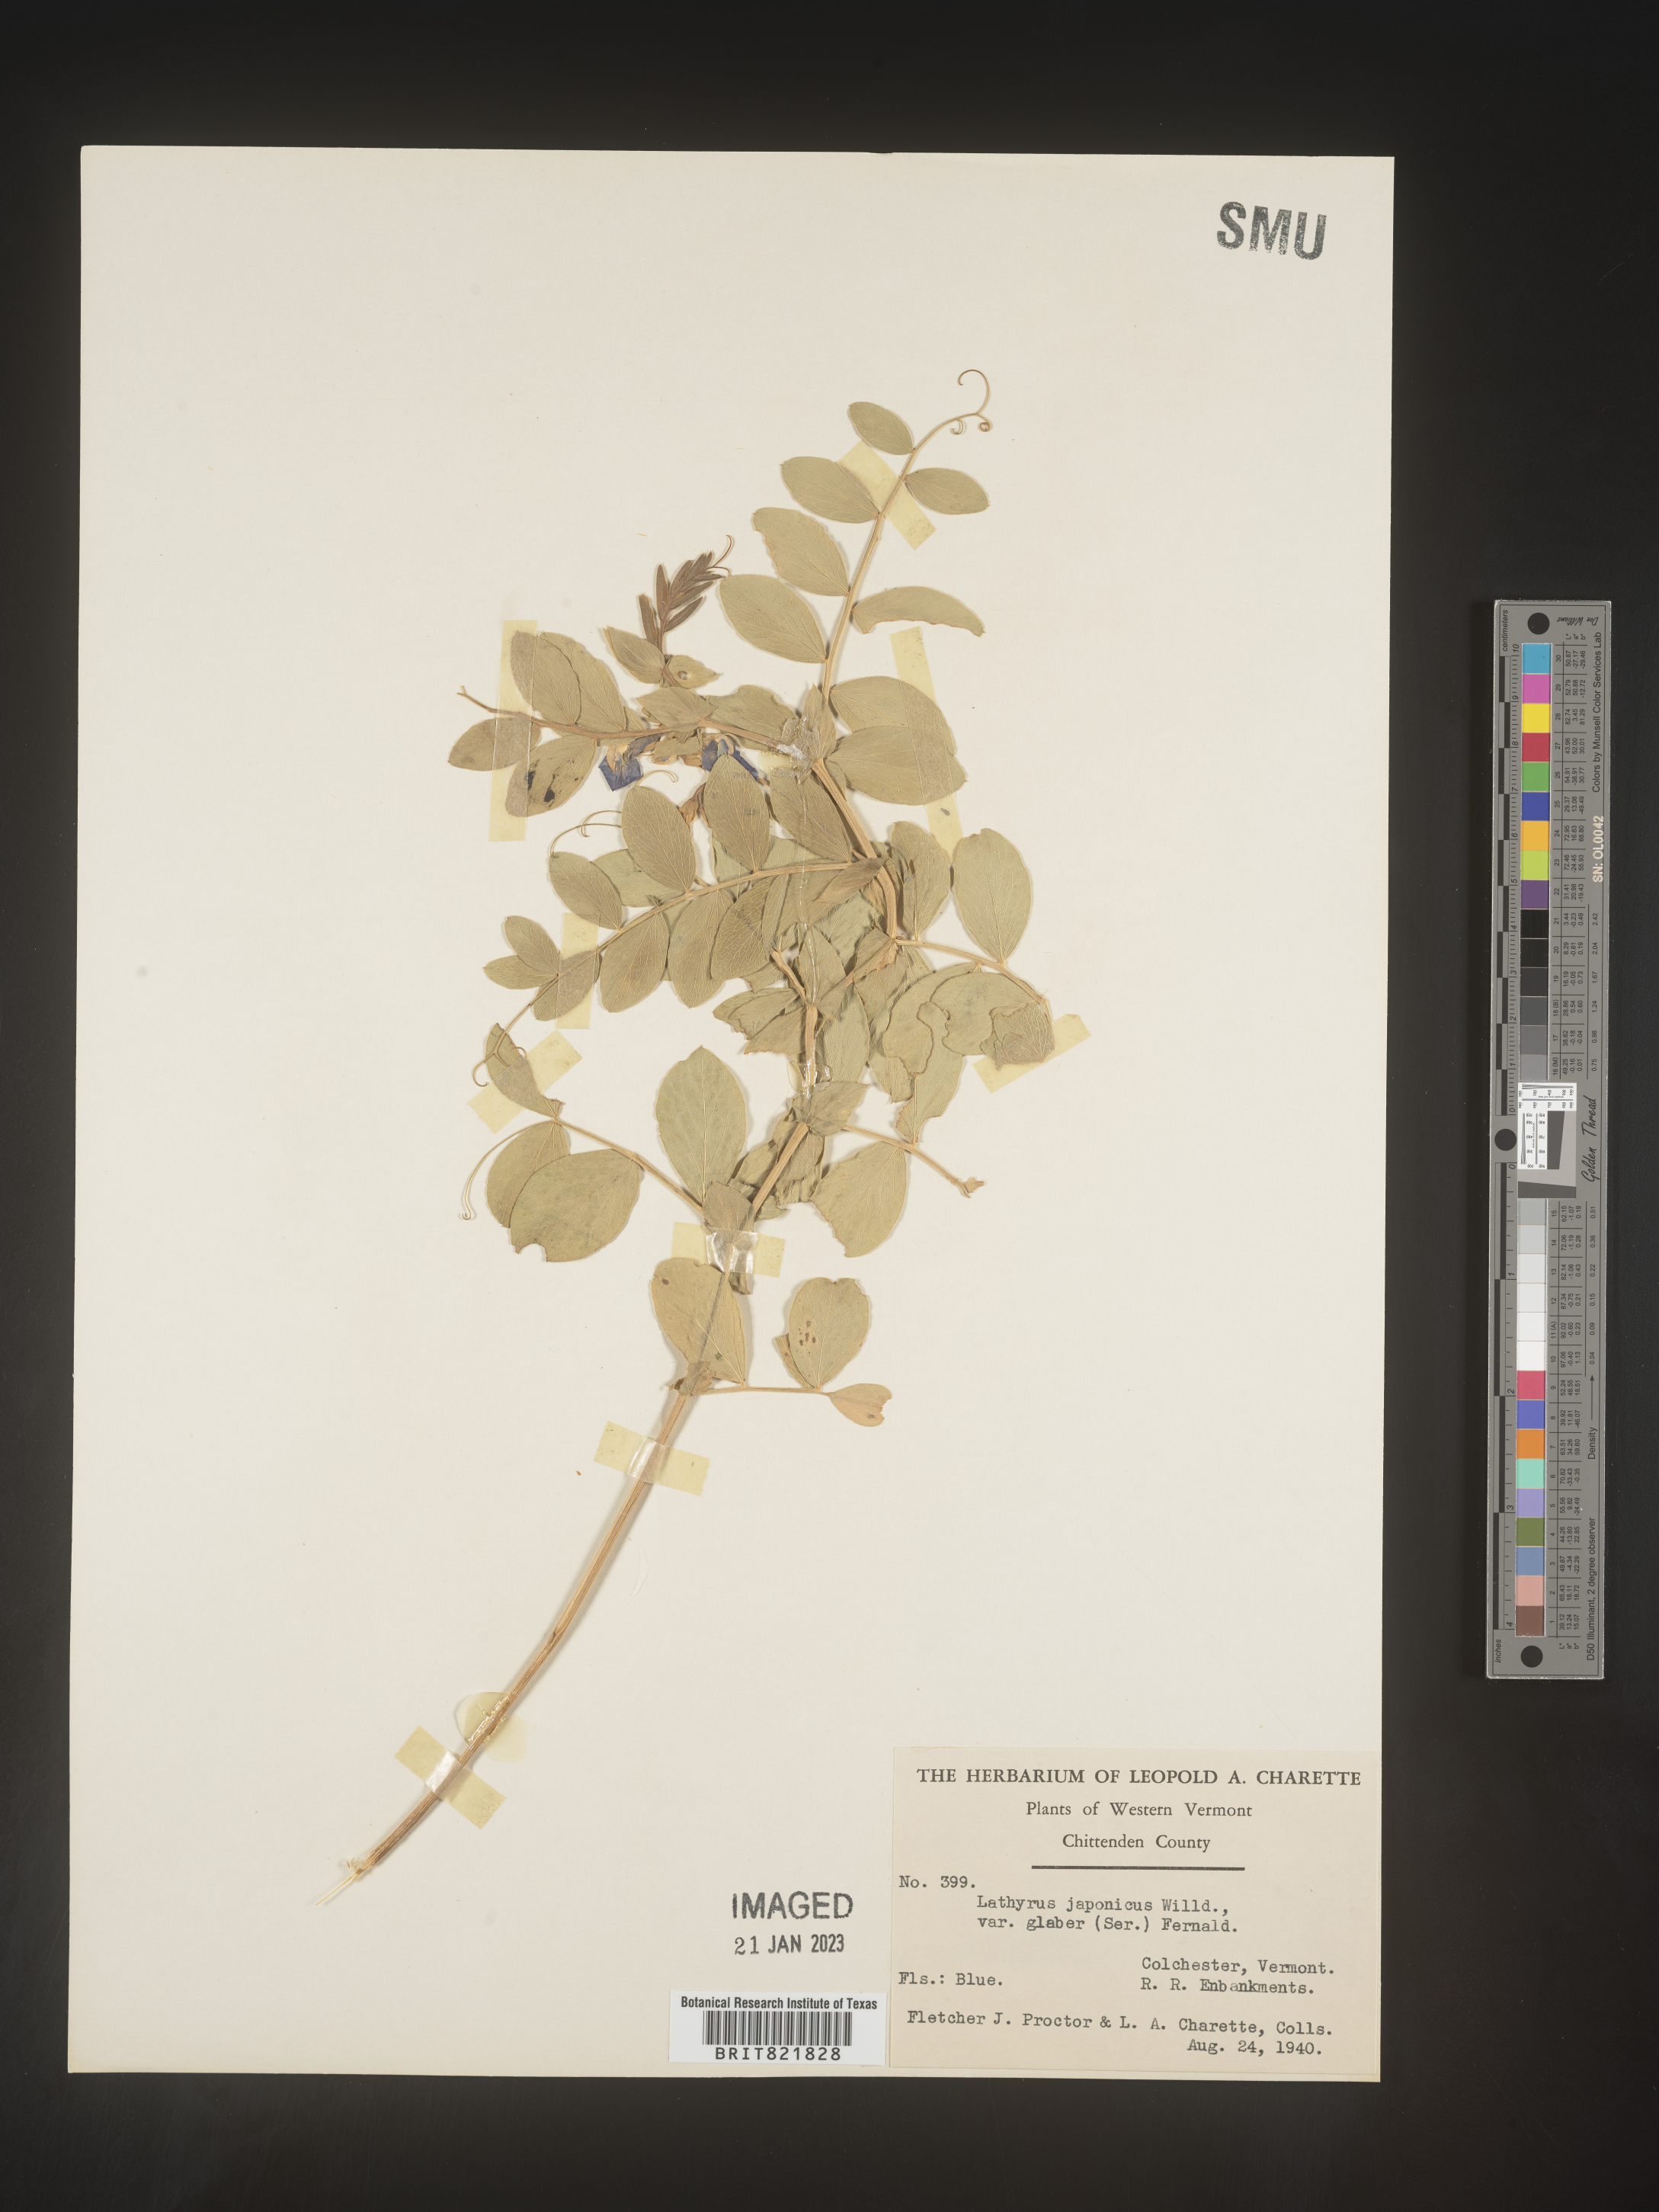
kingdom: Plantae
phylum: Tracheophyta
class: Magnoliopsida
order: Fabales
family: Fabaceae
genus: Lathyrus
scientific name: Lathyrus japonicus
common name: Sea pea
